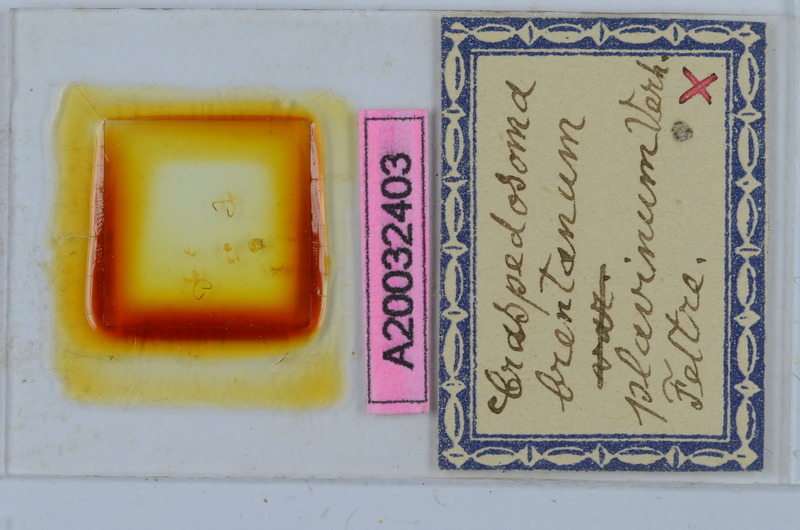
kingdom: Animalia
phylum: Arthropoda
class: Diplopoda
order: Chordeumatida
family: Craspedosomatidae
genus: Craspedosoma
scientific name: Craspedosoma brentanum
